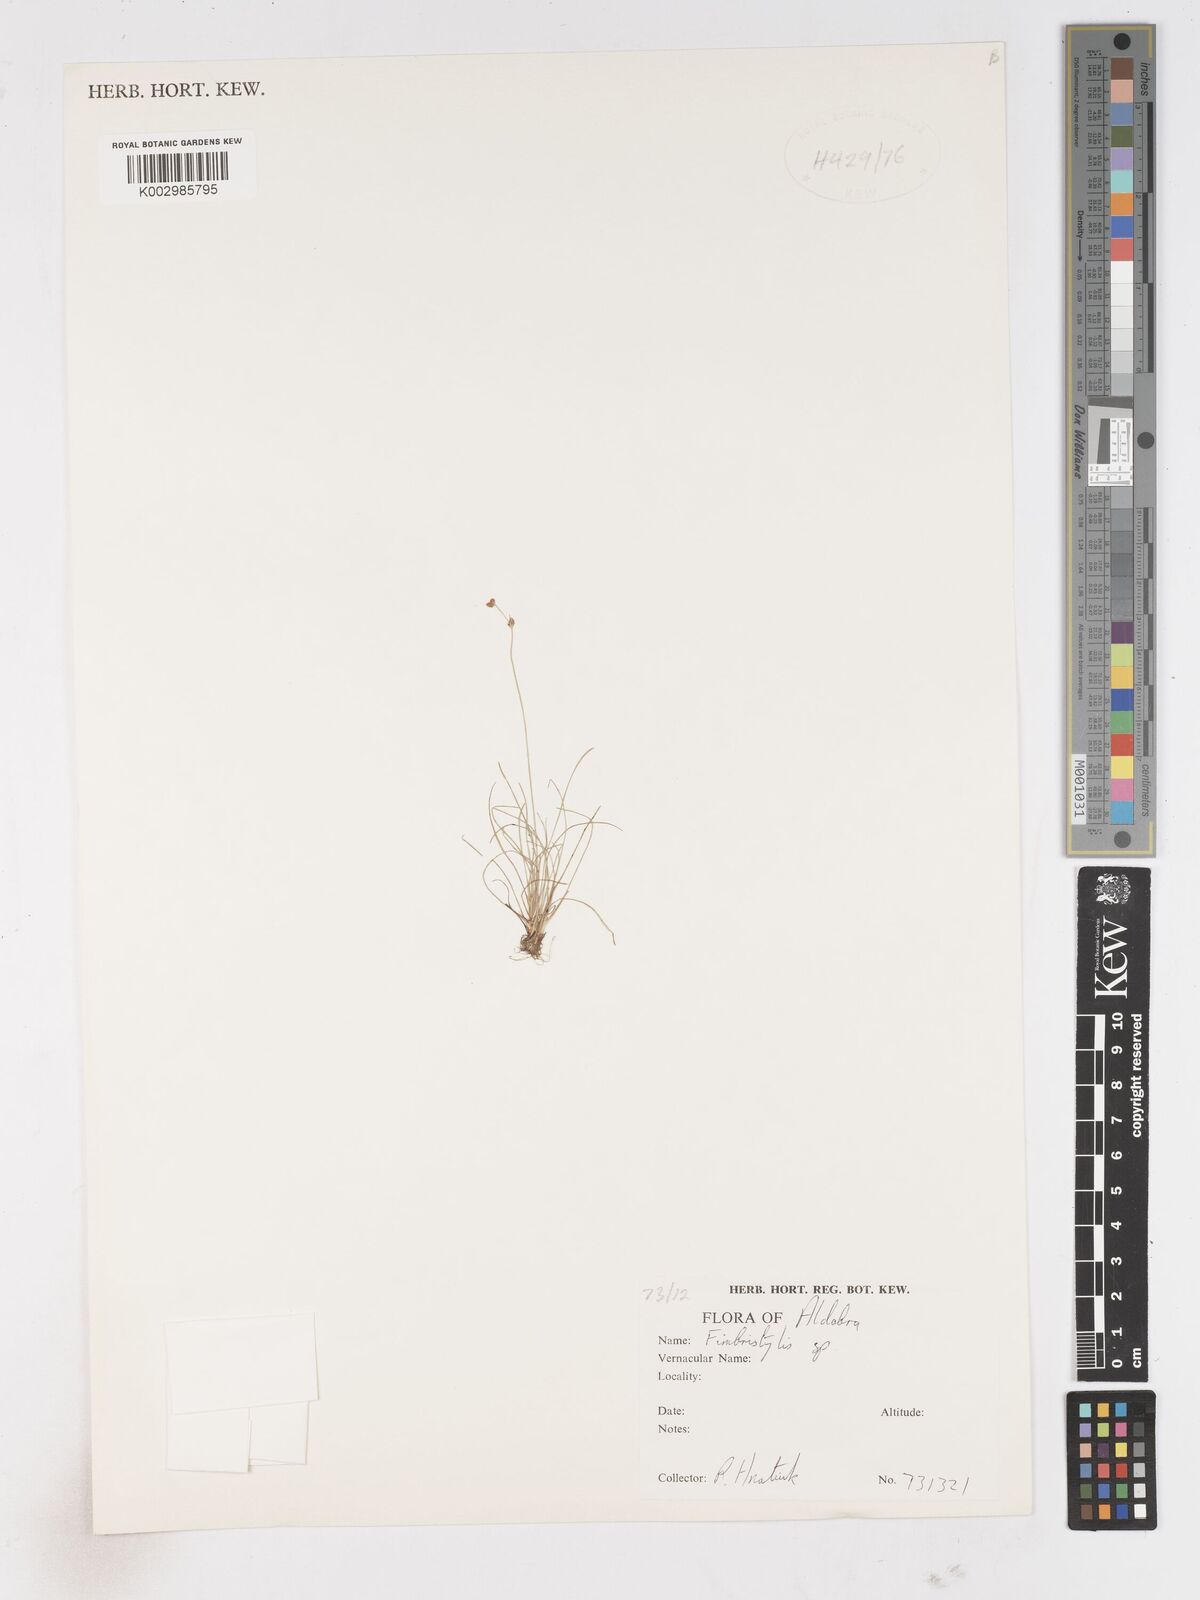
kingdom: Plantae
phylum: Tracheophyta
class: Liliopsida
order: Poales
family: Cyperaceae
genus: Fimbristylis
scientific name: Fimbristylis
